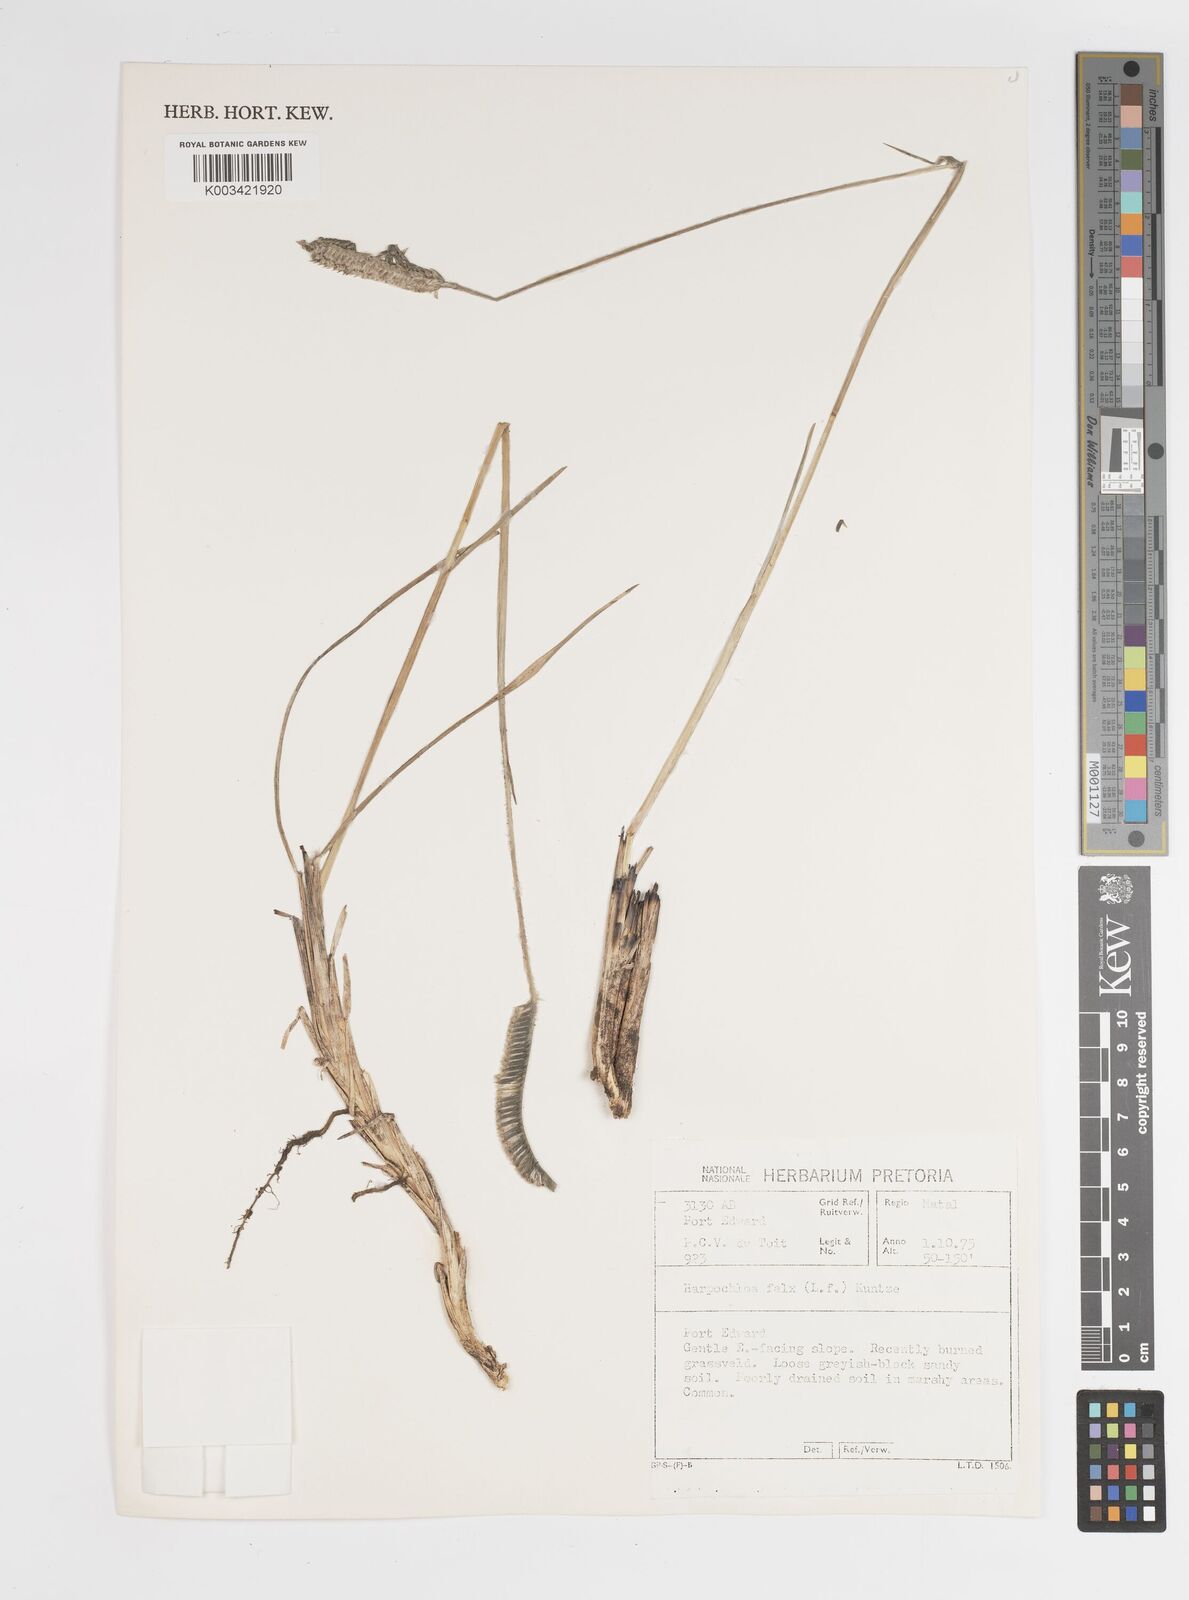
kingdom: Plantae
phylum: Tracheophyta
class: Liliopsida
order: Poales
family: Poaceae
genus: Harpochloa
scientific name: Harpochloa falx
